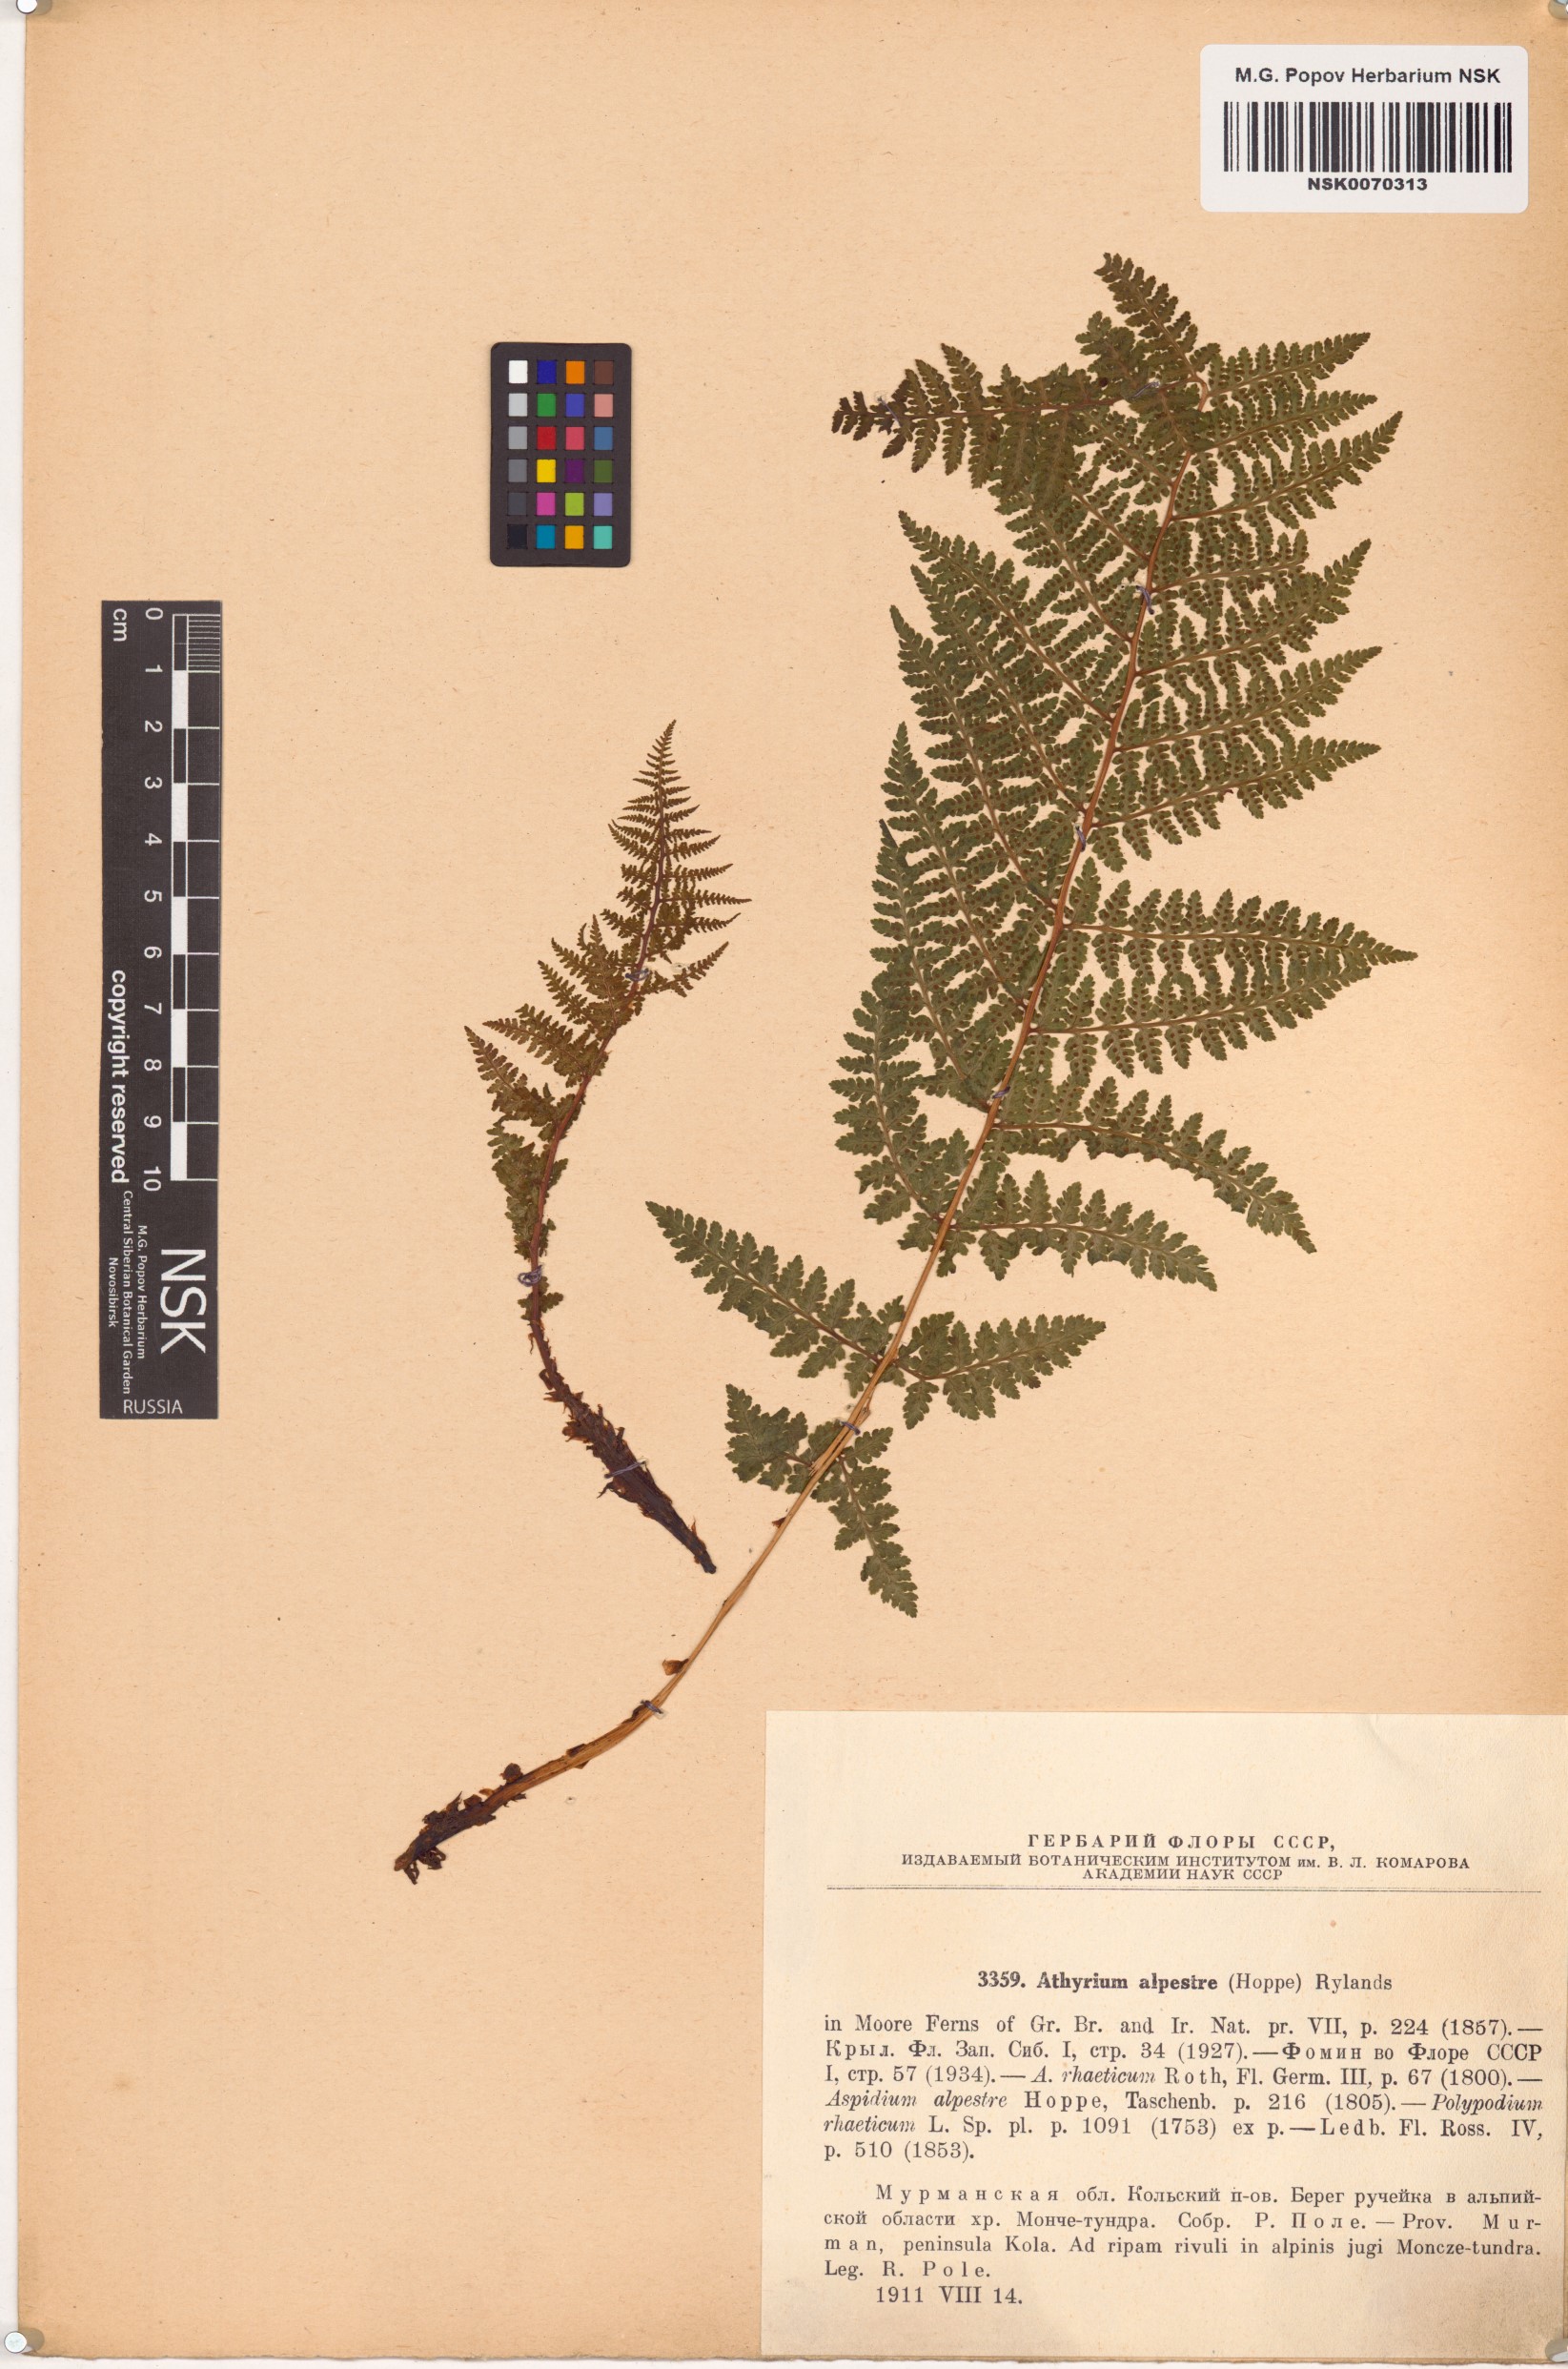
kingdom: Plantae
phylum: Tracheophyta
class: Polypodiopsida
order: Polypodiales
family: Athyriaceae
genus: Pseudathyrium
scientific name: Pseudathyrium alpestre
